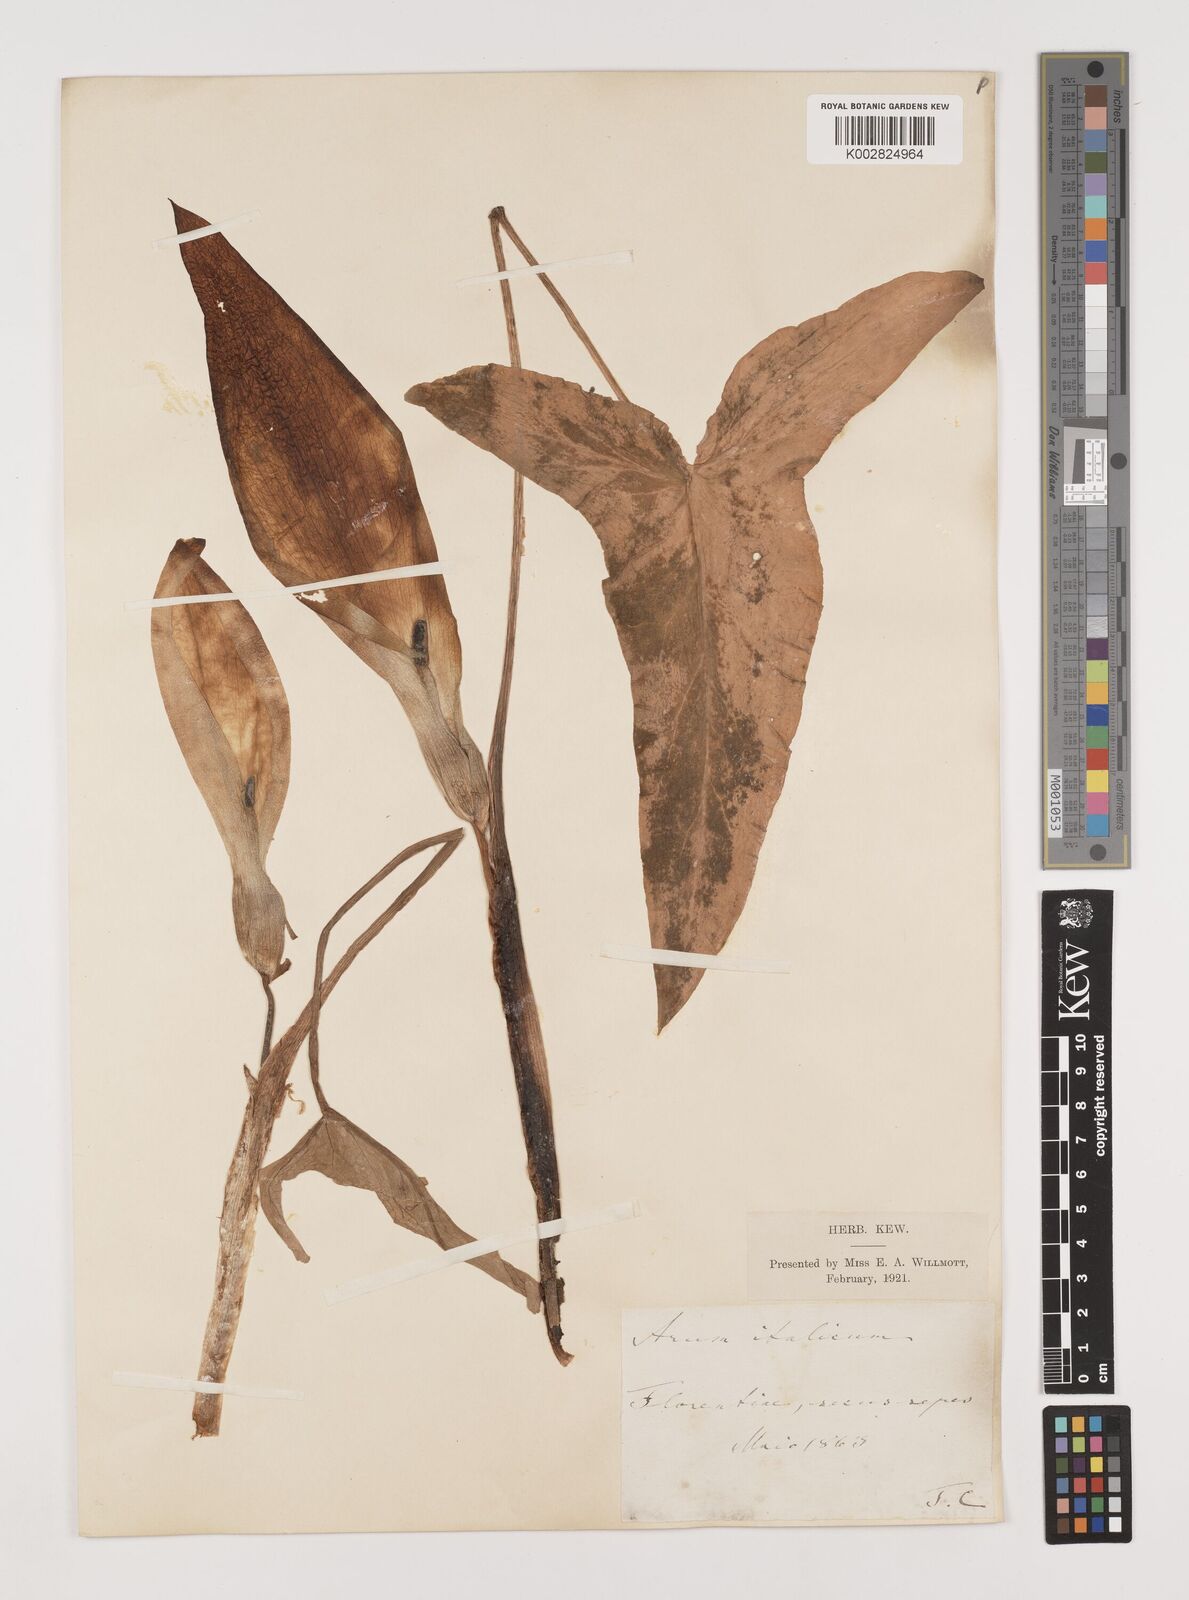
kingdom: Plantae
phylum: Tracheophyta
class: Liliopsida
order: Alismatales
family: Araceae
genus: Arum
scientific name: Arum italicum
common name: Italian lords-and-ladies
